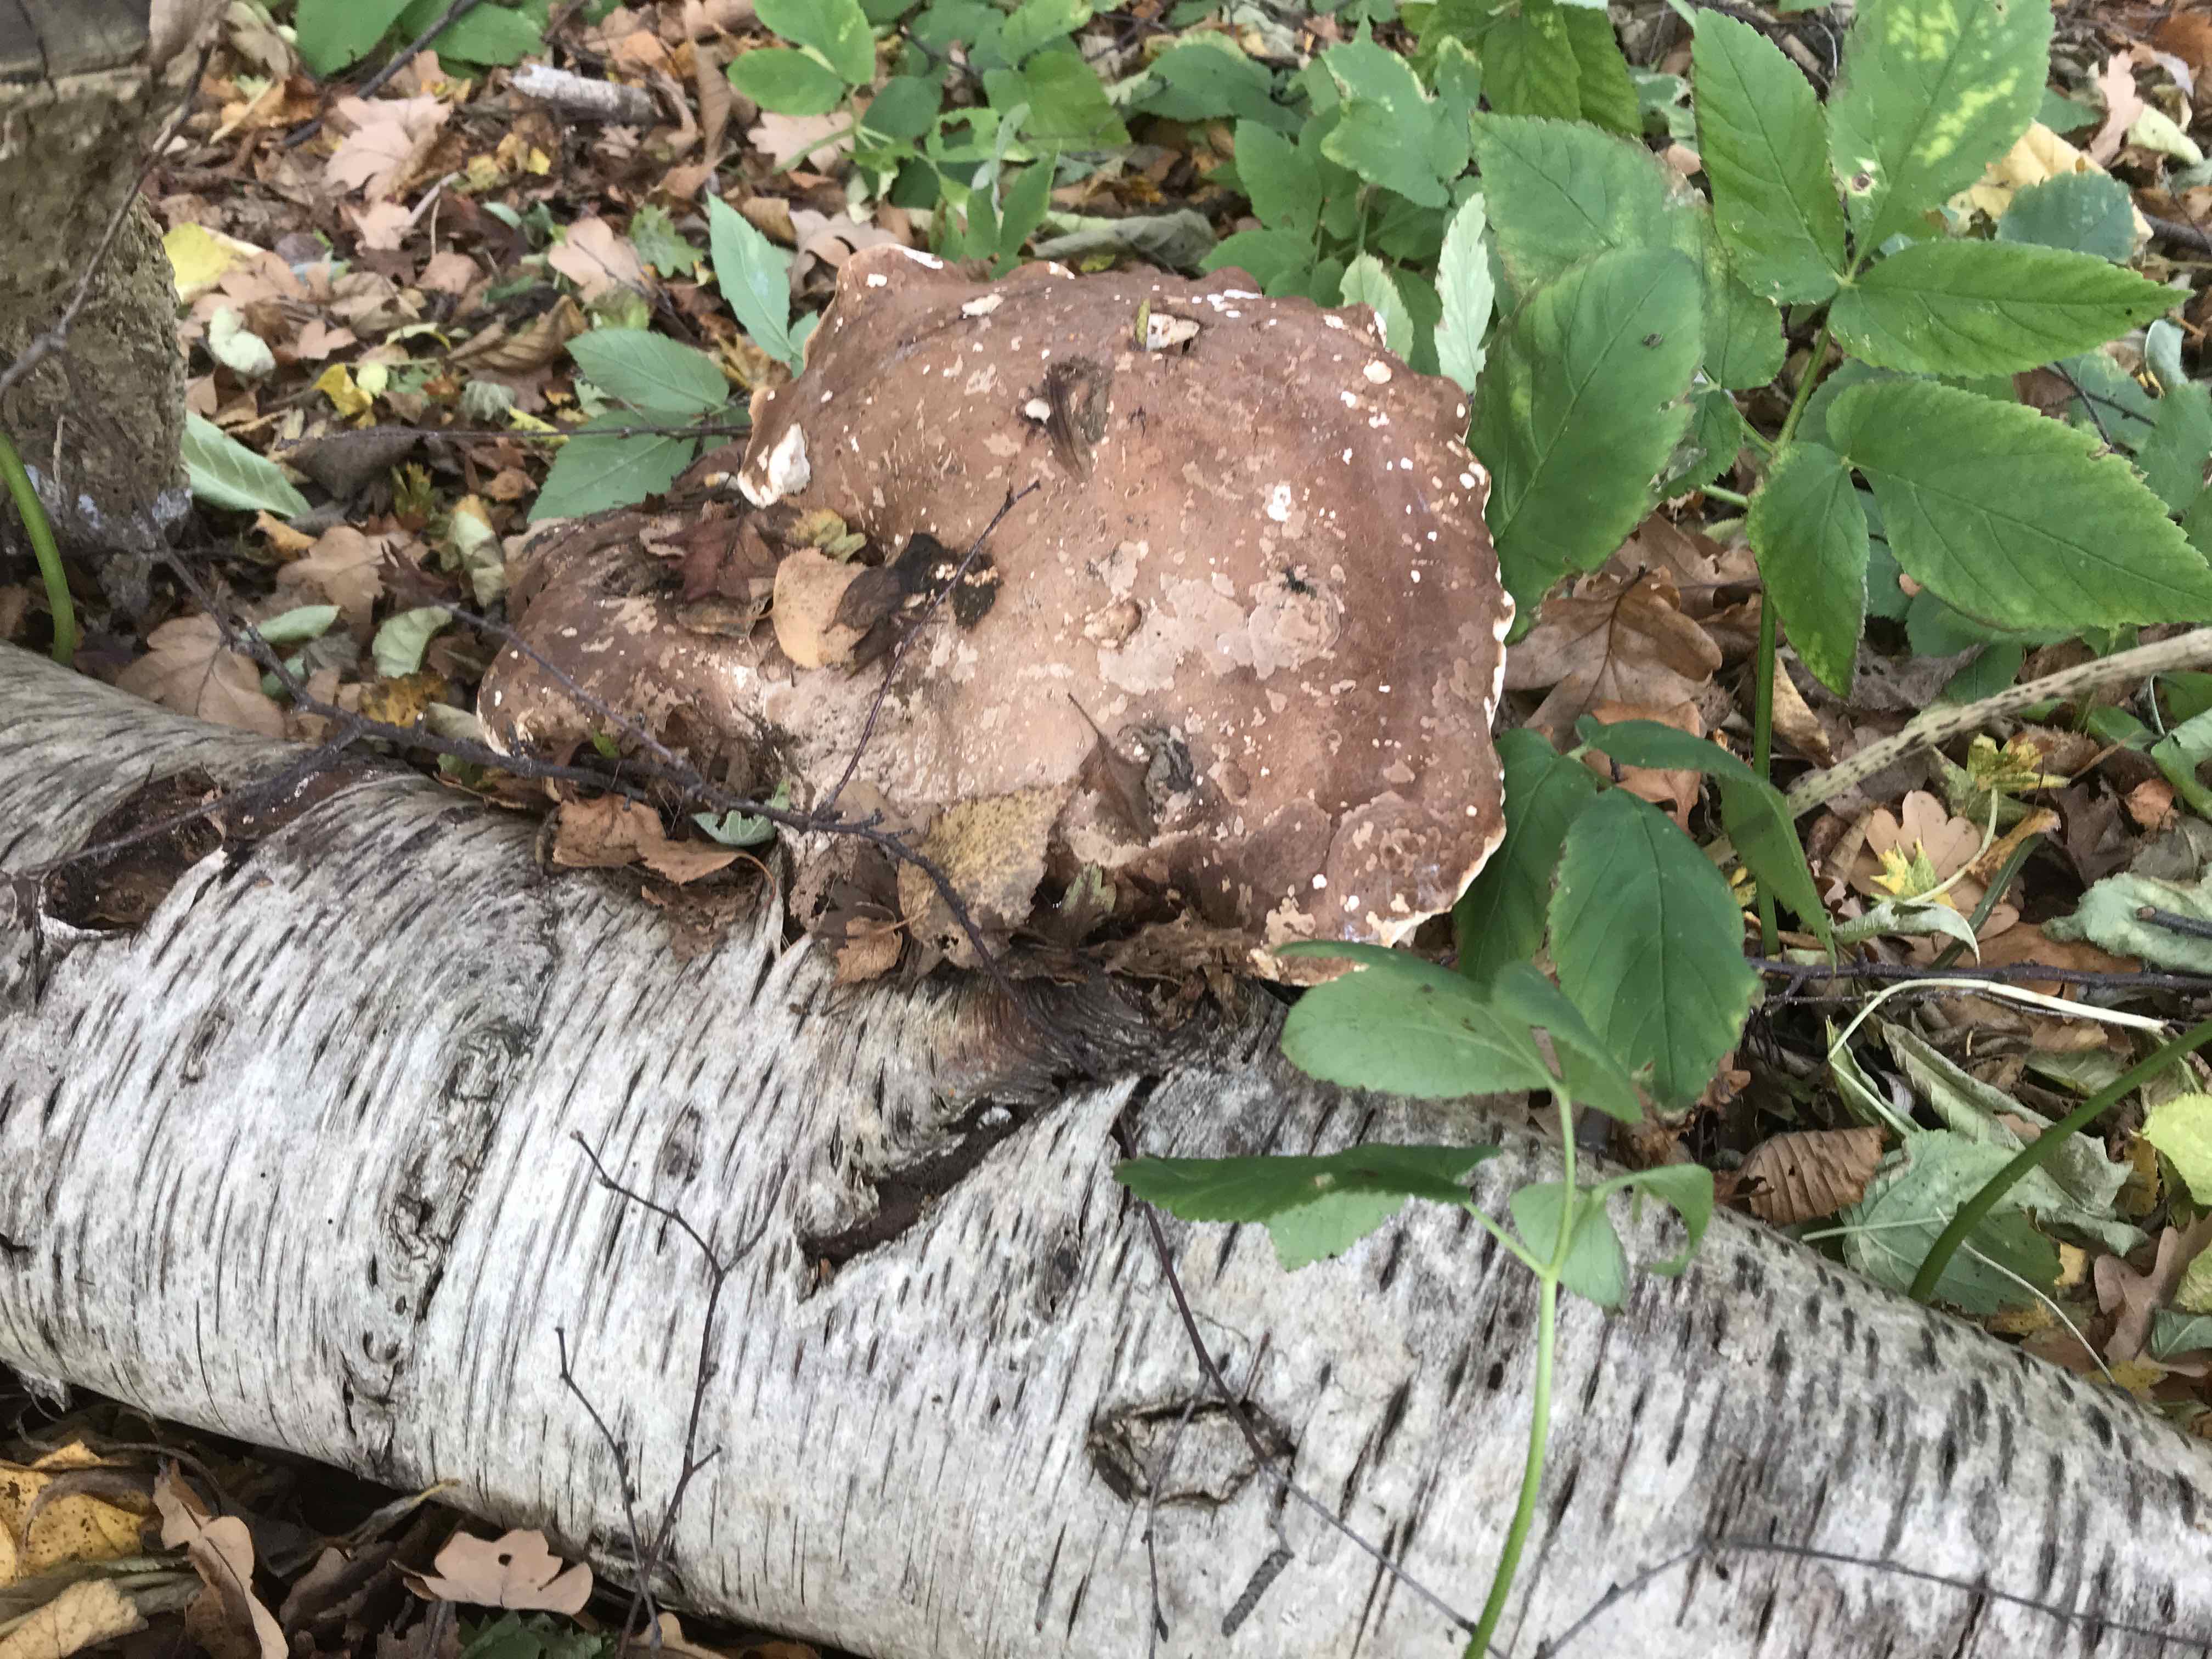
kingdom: Fungi
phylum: Basidiomycota
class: Agaricomycetes
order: Polyporales
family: Fomitopsidaceae
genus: Fomitopsis
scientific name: Fomitopsis betulina
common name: birkeporesvamp
